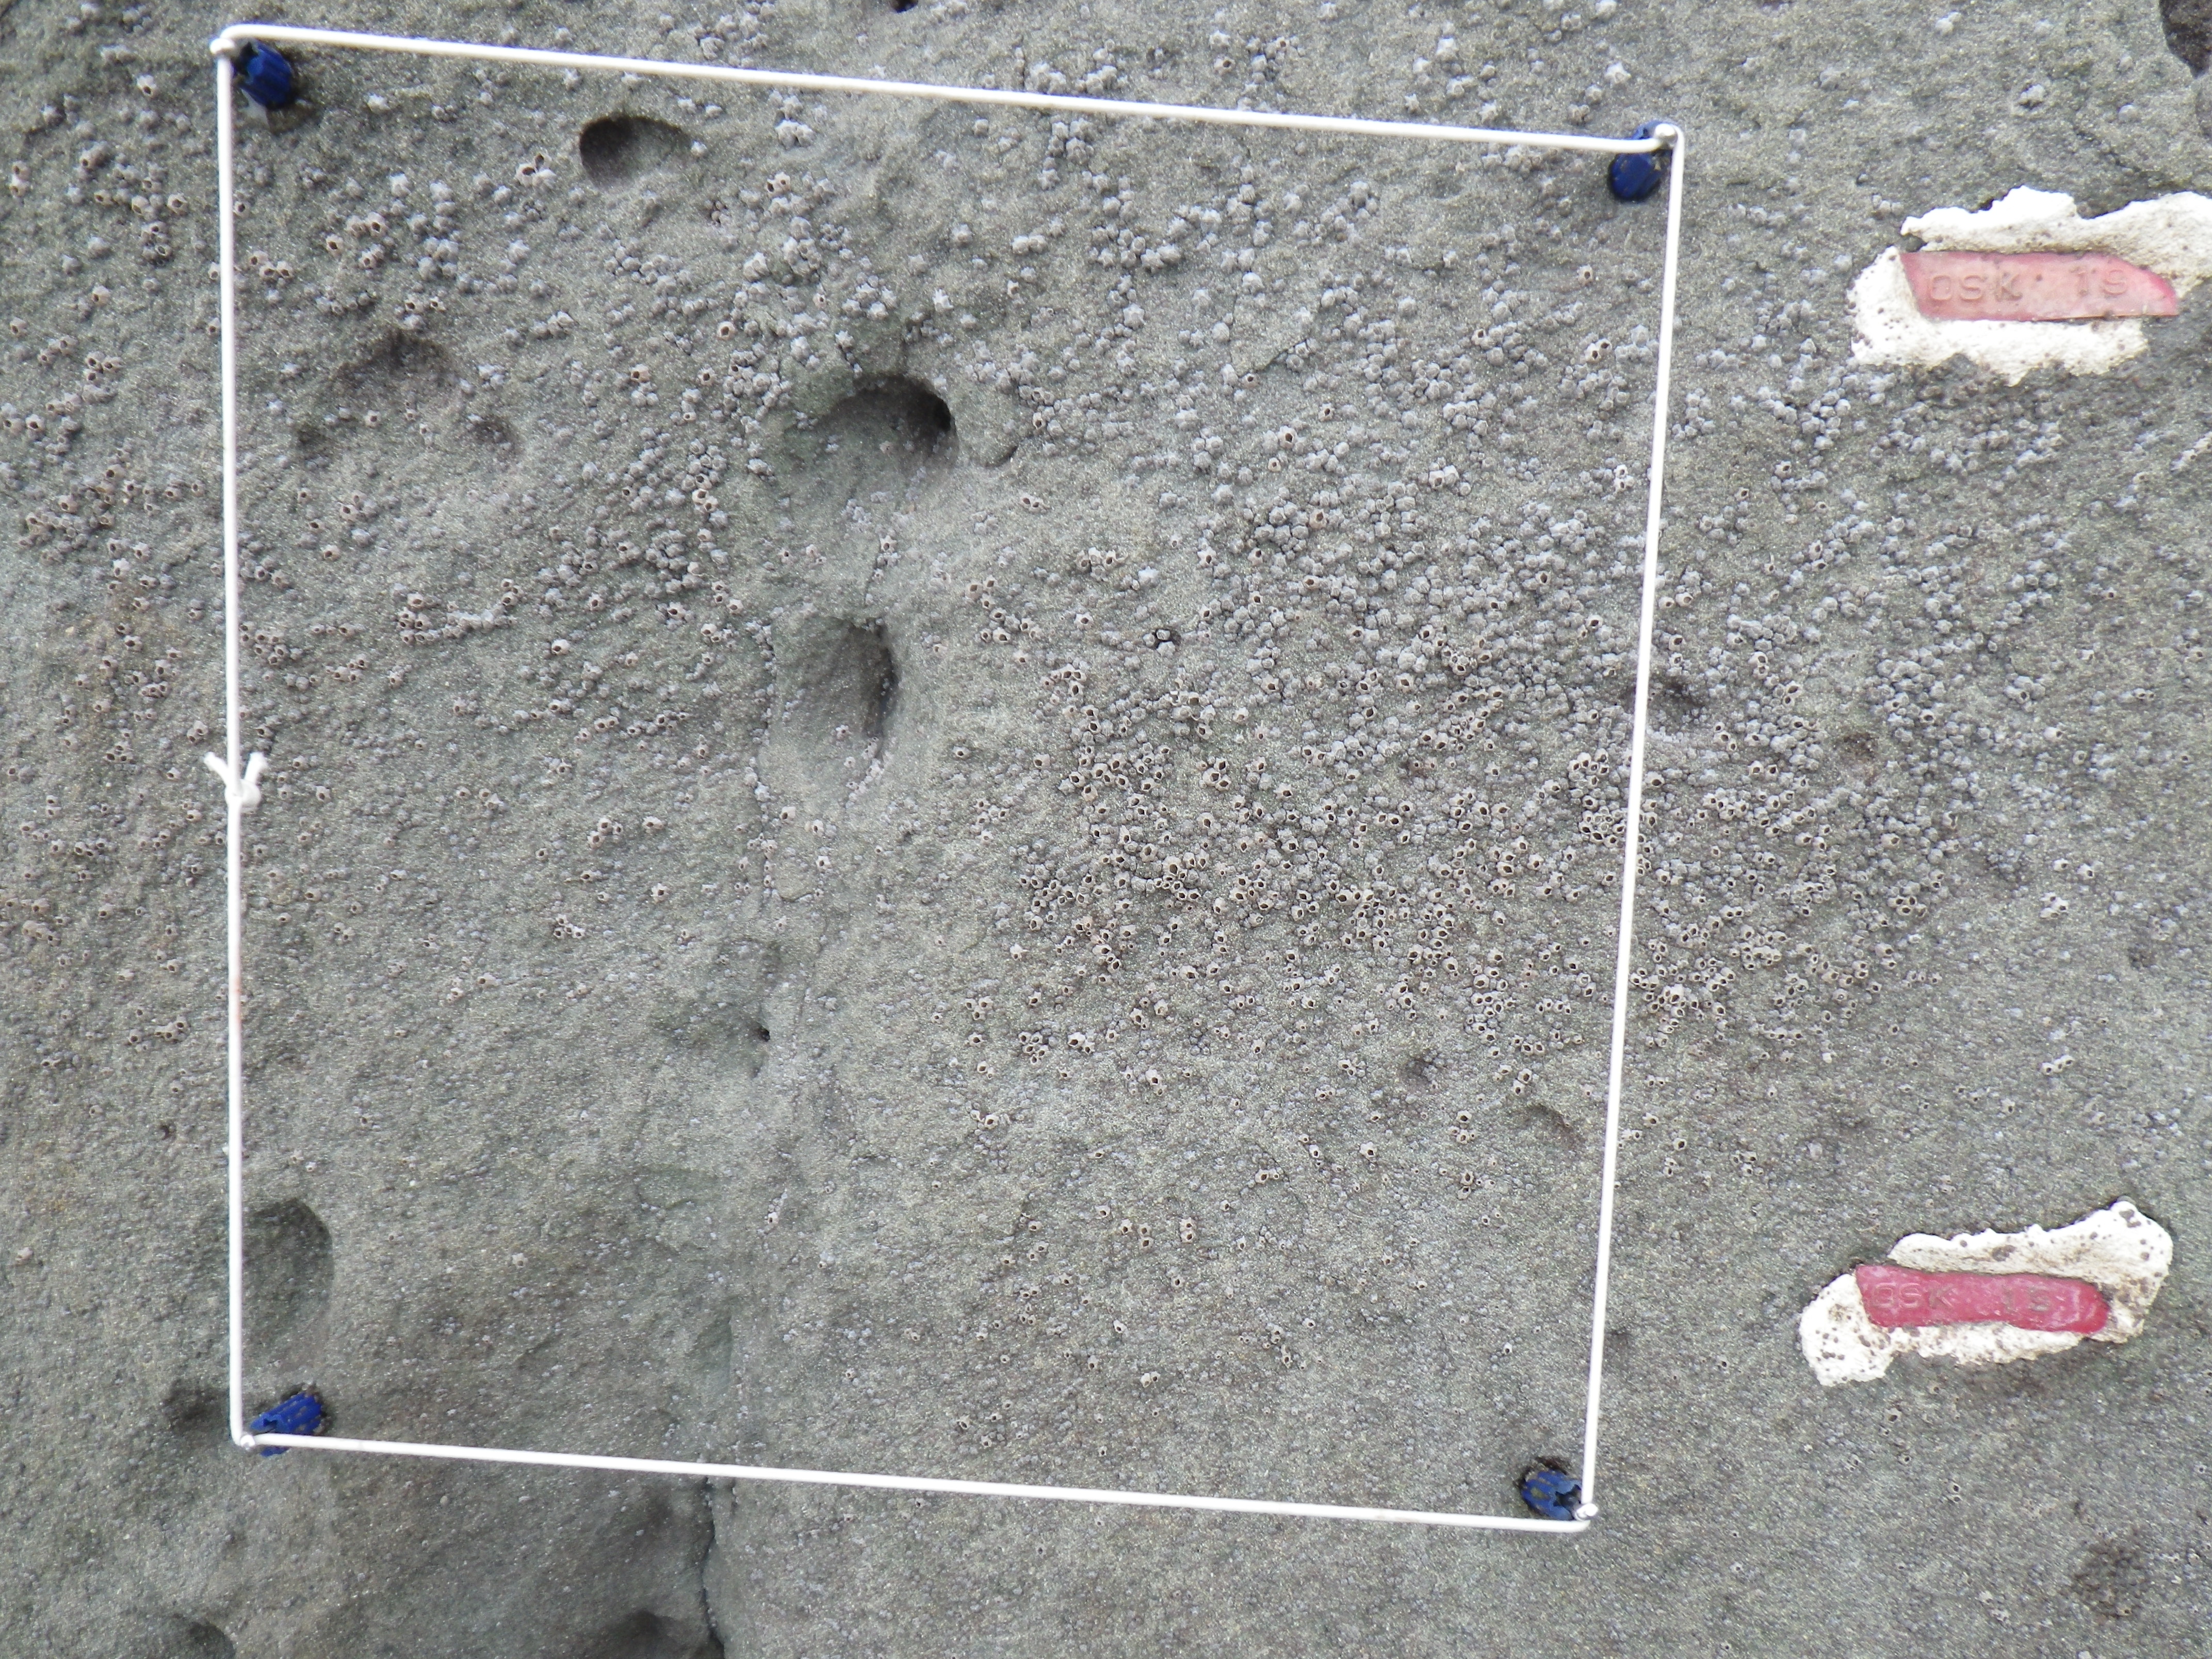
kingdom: Animalia
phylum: Arthropoda
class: Maxillopoda
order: Sessilia
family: Chthamalidae
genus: Chthamalus
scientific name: Chthamalus challengeri
